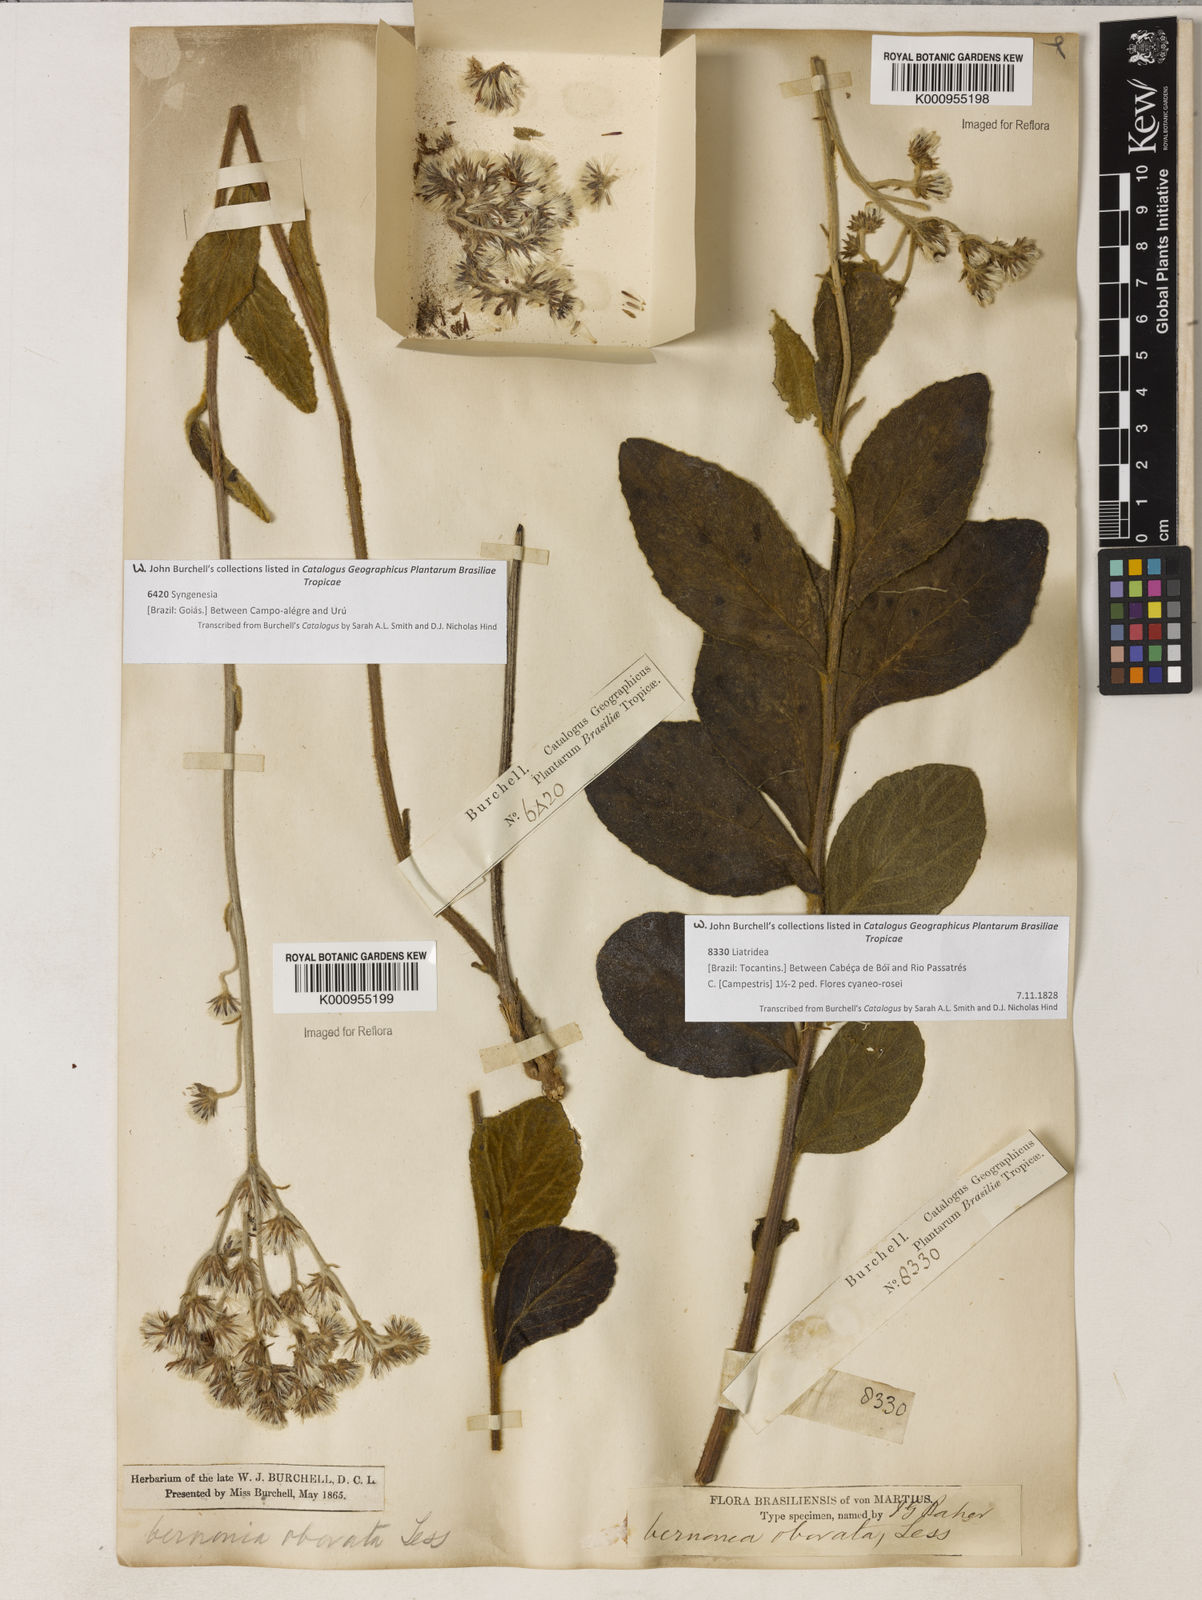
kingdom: Plantae
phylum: Tracheophyta
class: Magnoliopsida
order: Asterales
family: Asteraceae
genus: Chrysolaena
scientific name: Chrysolaena obovata
